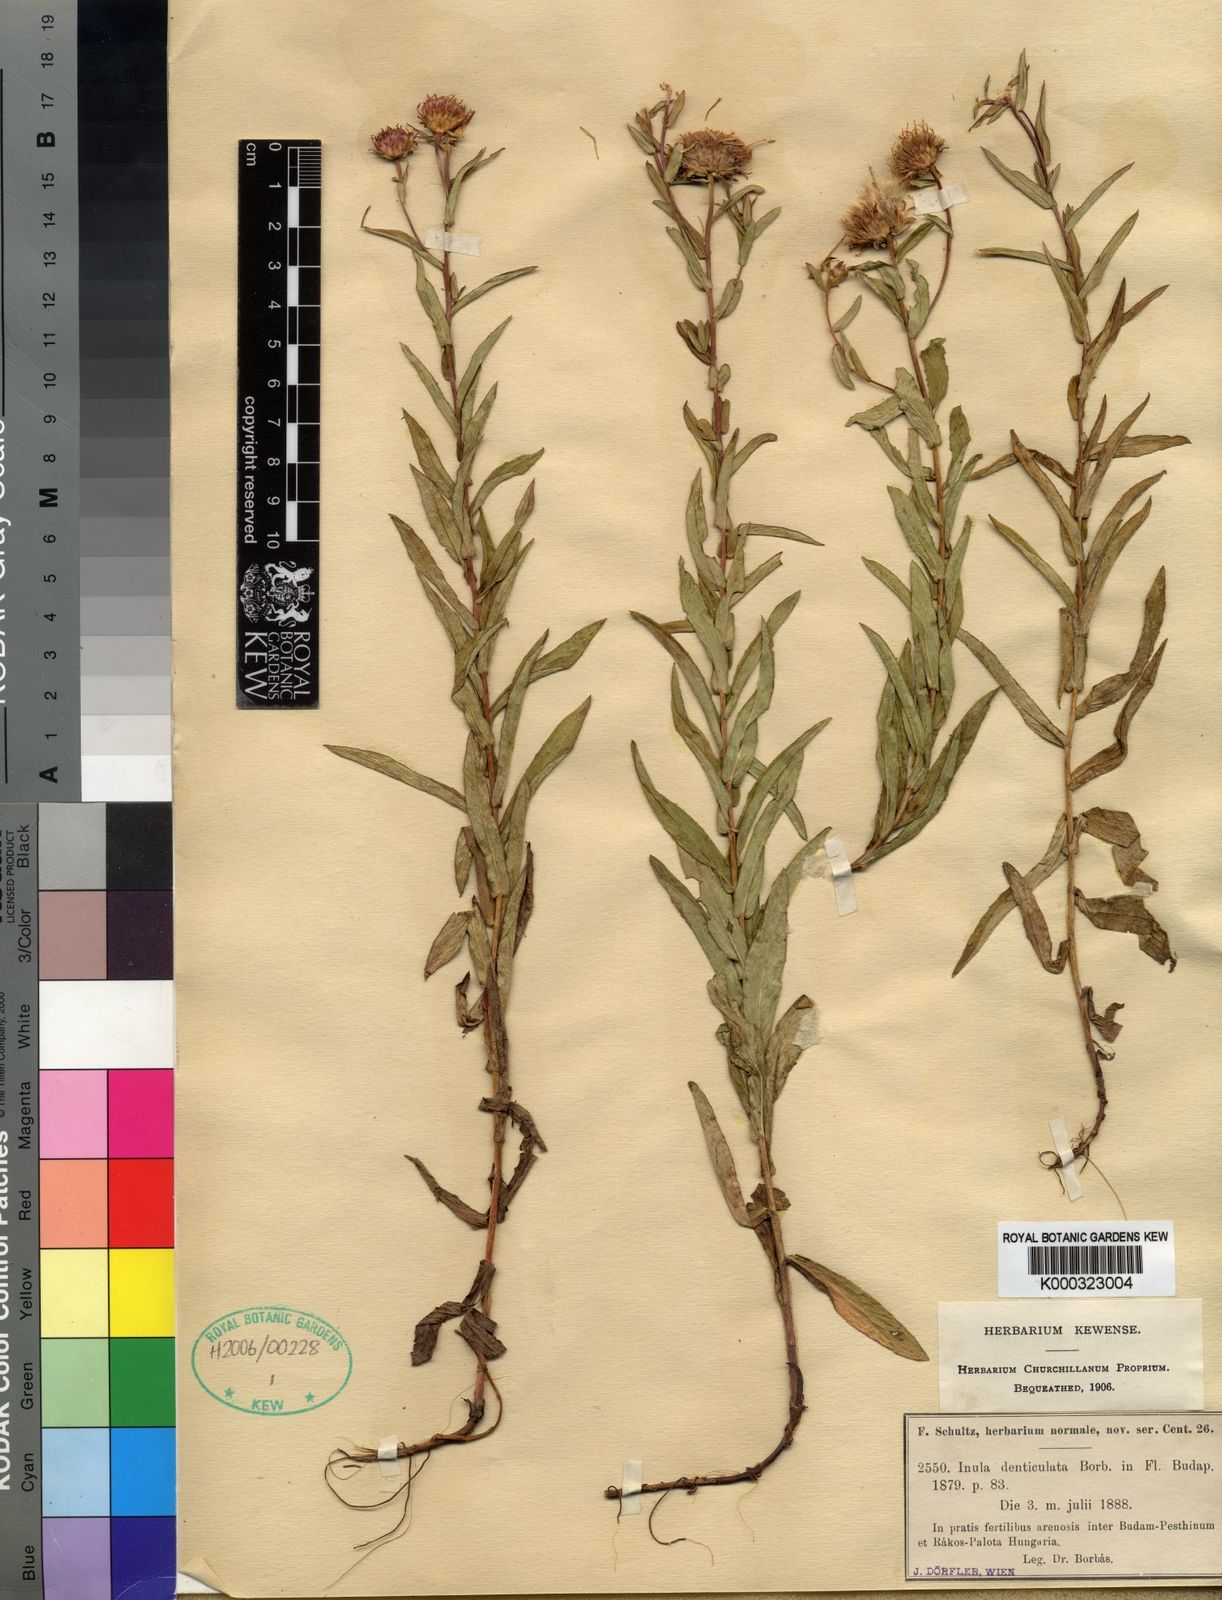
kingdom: Plantae
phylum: Tracheophyta
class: Magnoliopsida
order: Asterales
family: Asteraceae
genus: Inula
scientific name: Inula
